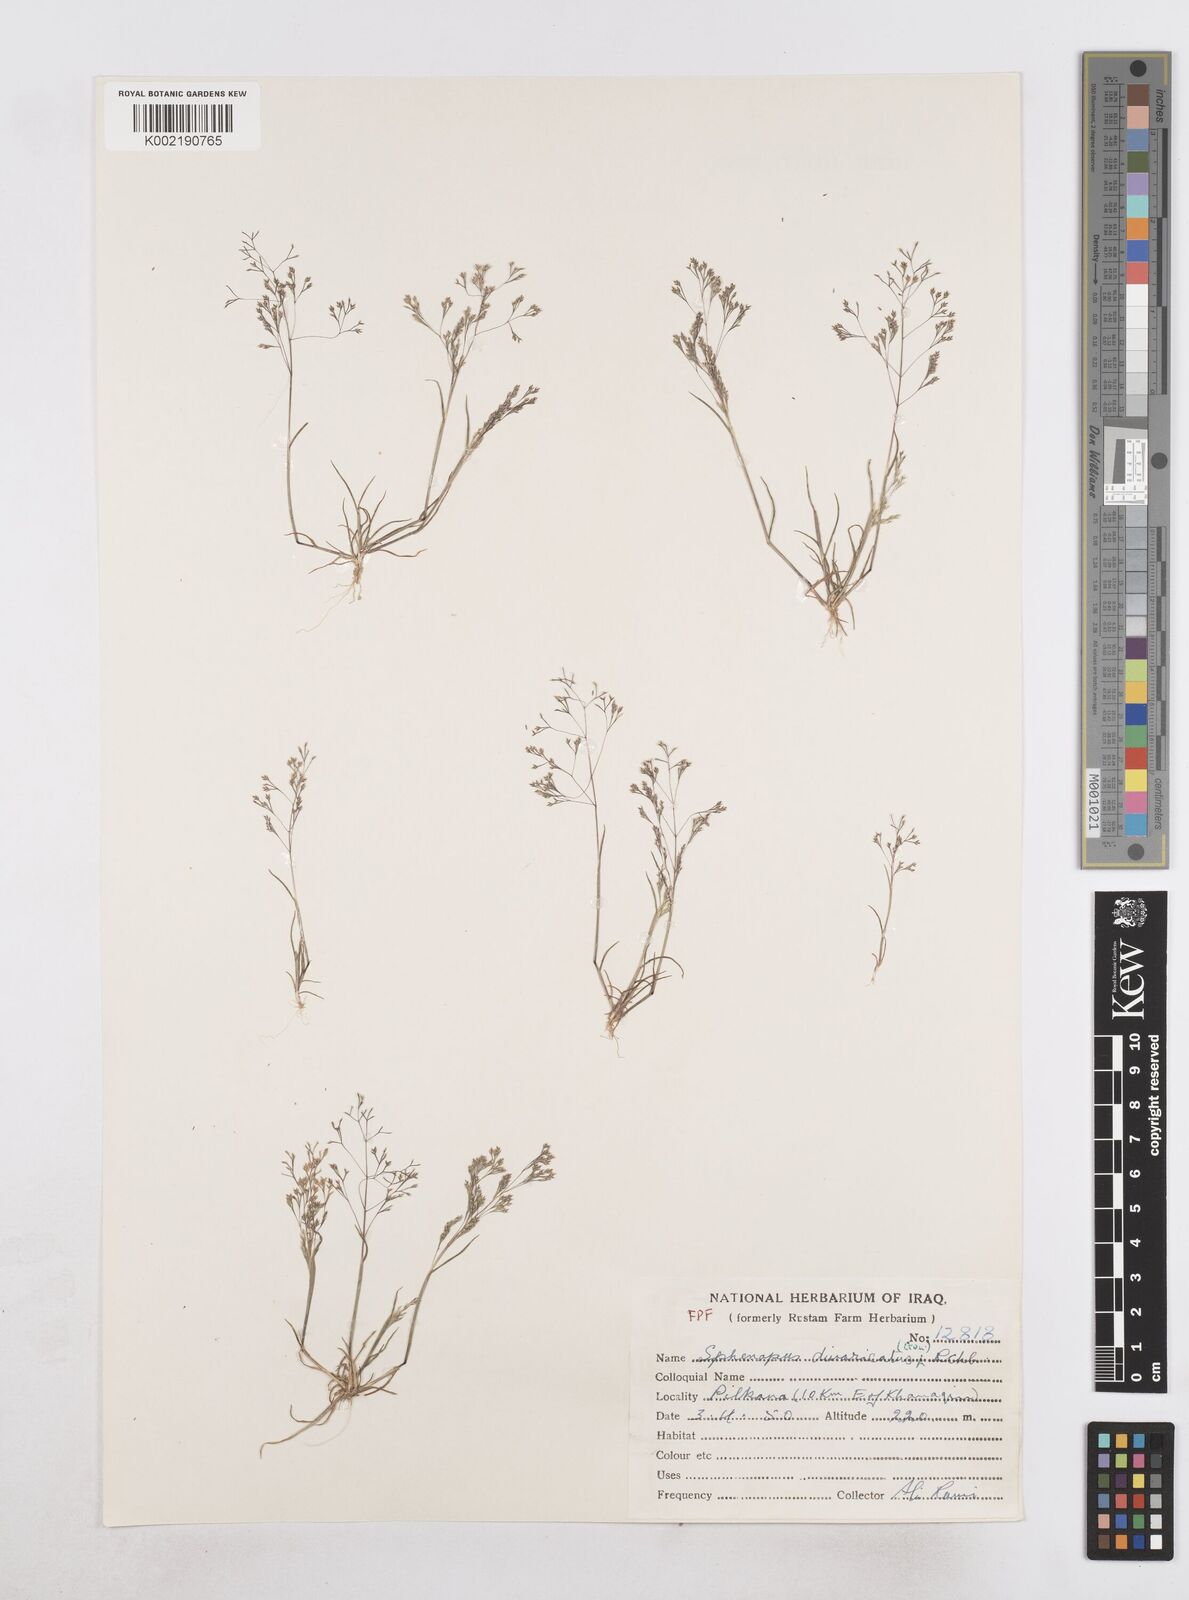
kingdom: Plantae
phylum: Tracheophyta
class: Liliopsida
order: Poales
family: Poaceae
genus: Sphenopus
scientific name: Sphenopus divaricatus
